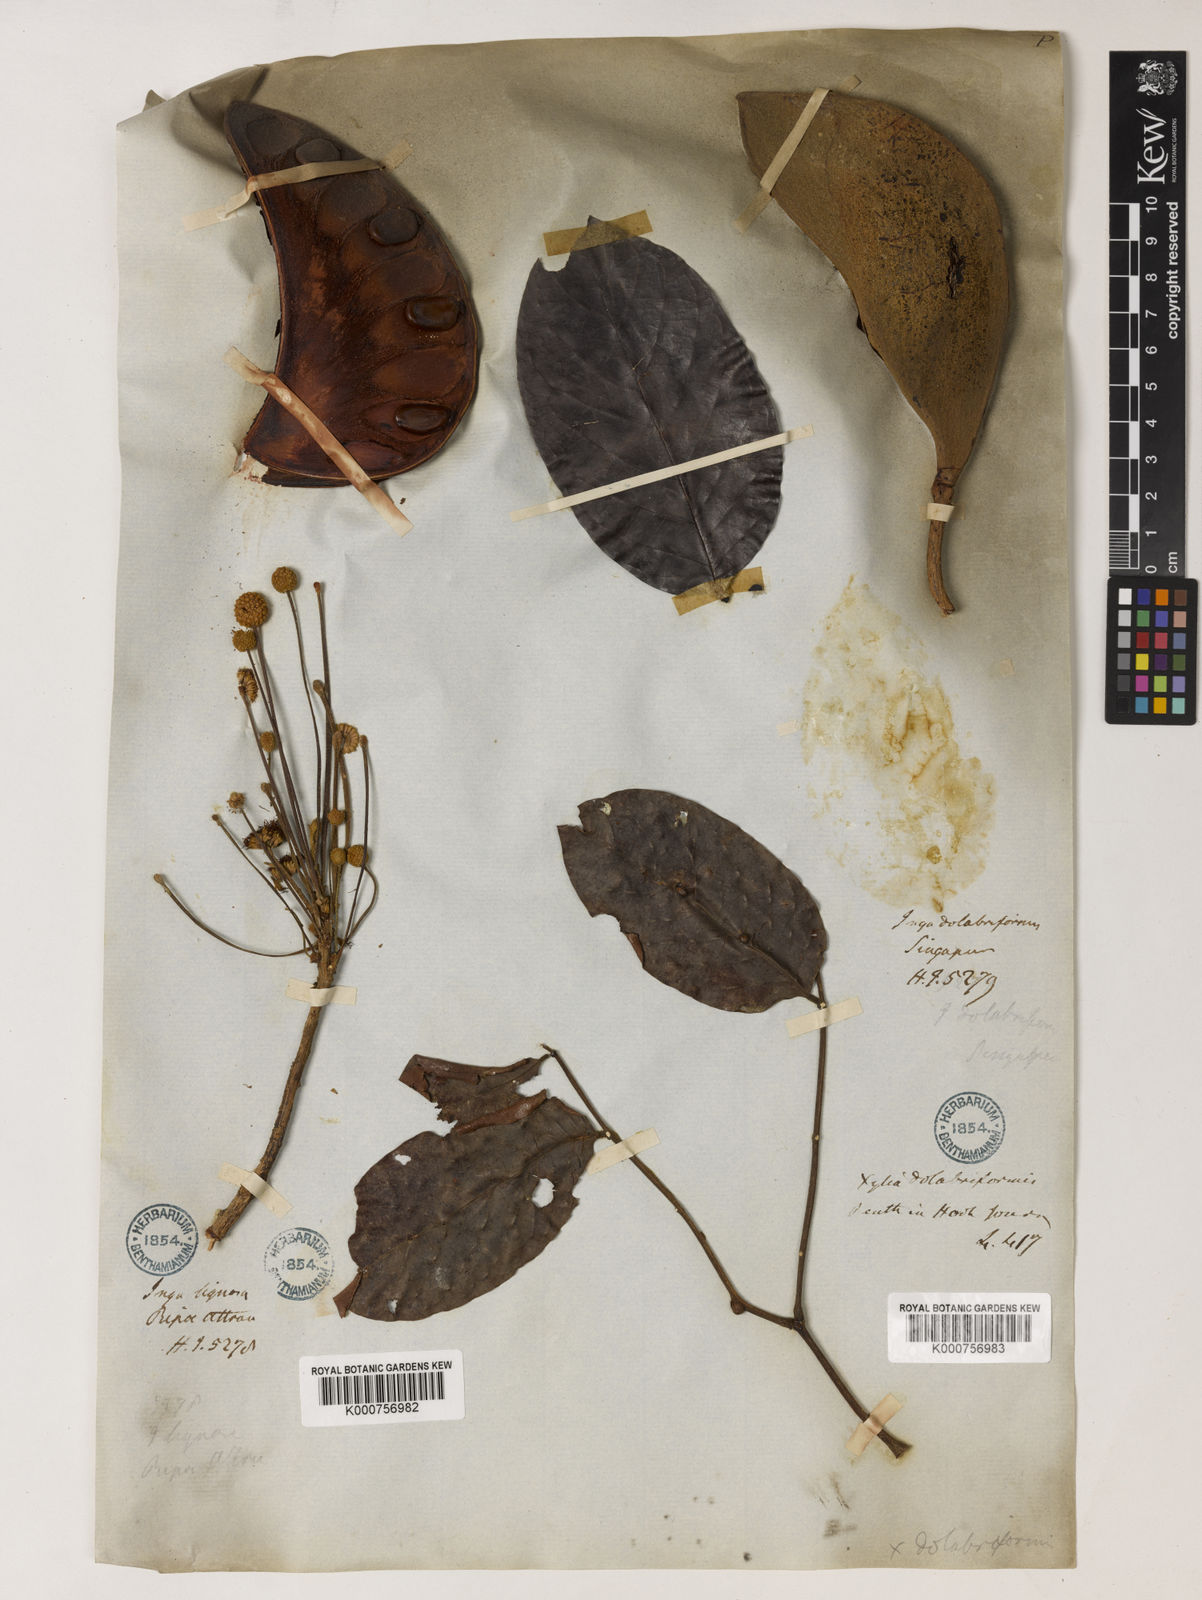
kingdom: Plantae
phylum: Tracheophyta
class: Magnoliopsida
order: Fabales
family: Fabaceae
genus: Xylia
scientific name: Xylia
